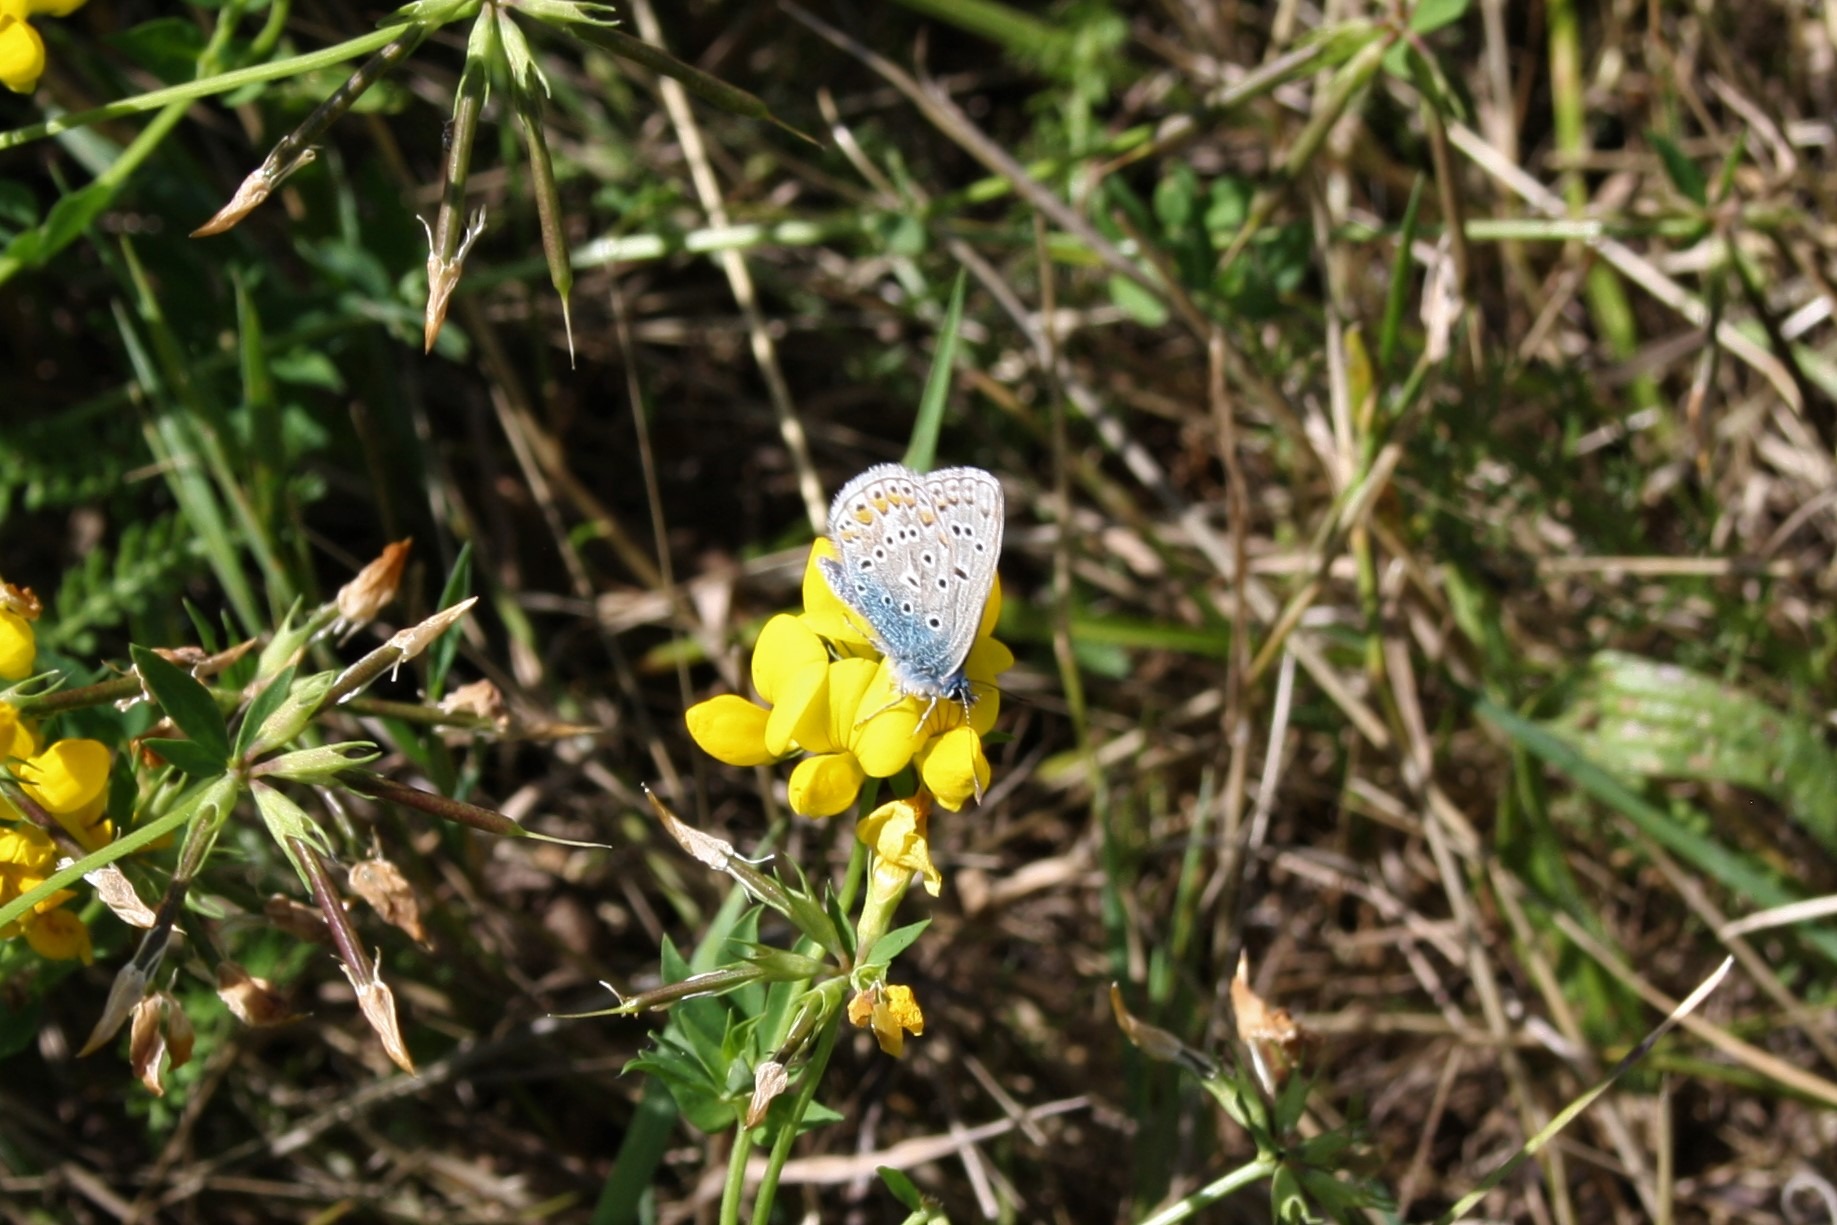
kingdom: Animalia
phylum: Arthropoda
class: Insecta
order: Lepidoptera
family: Lycaenidae
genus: Polyommatus
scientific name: Polyommatus icarus
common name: Almindelig blåfugl
